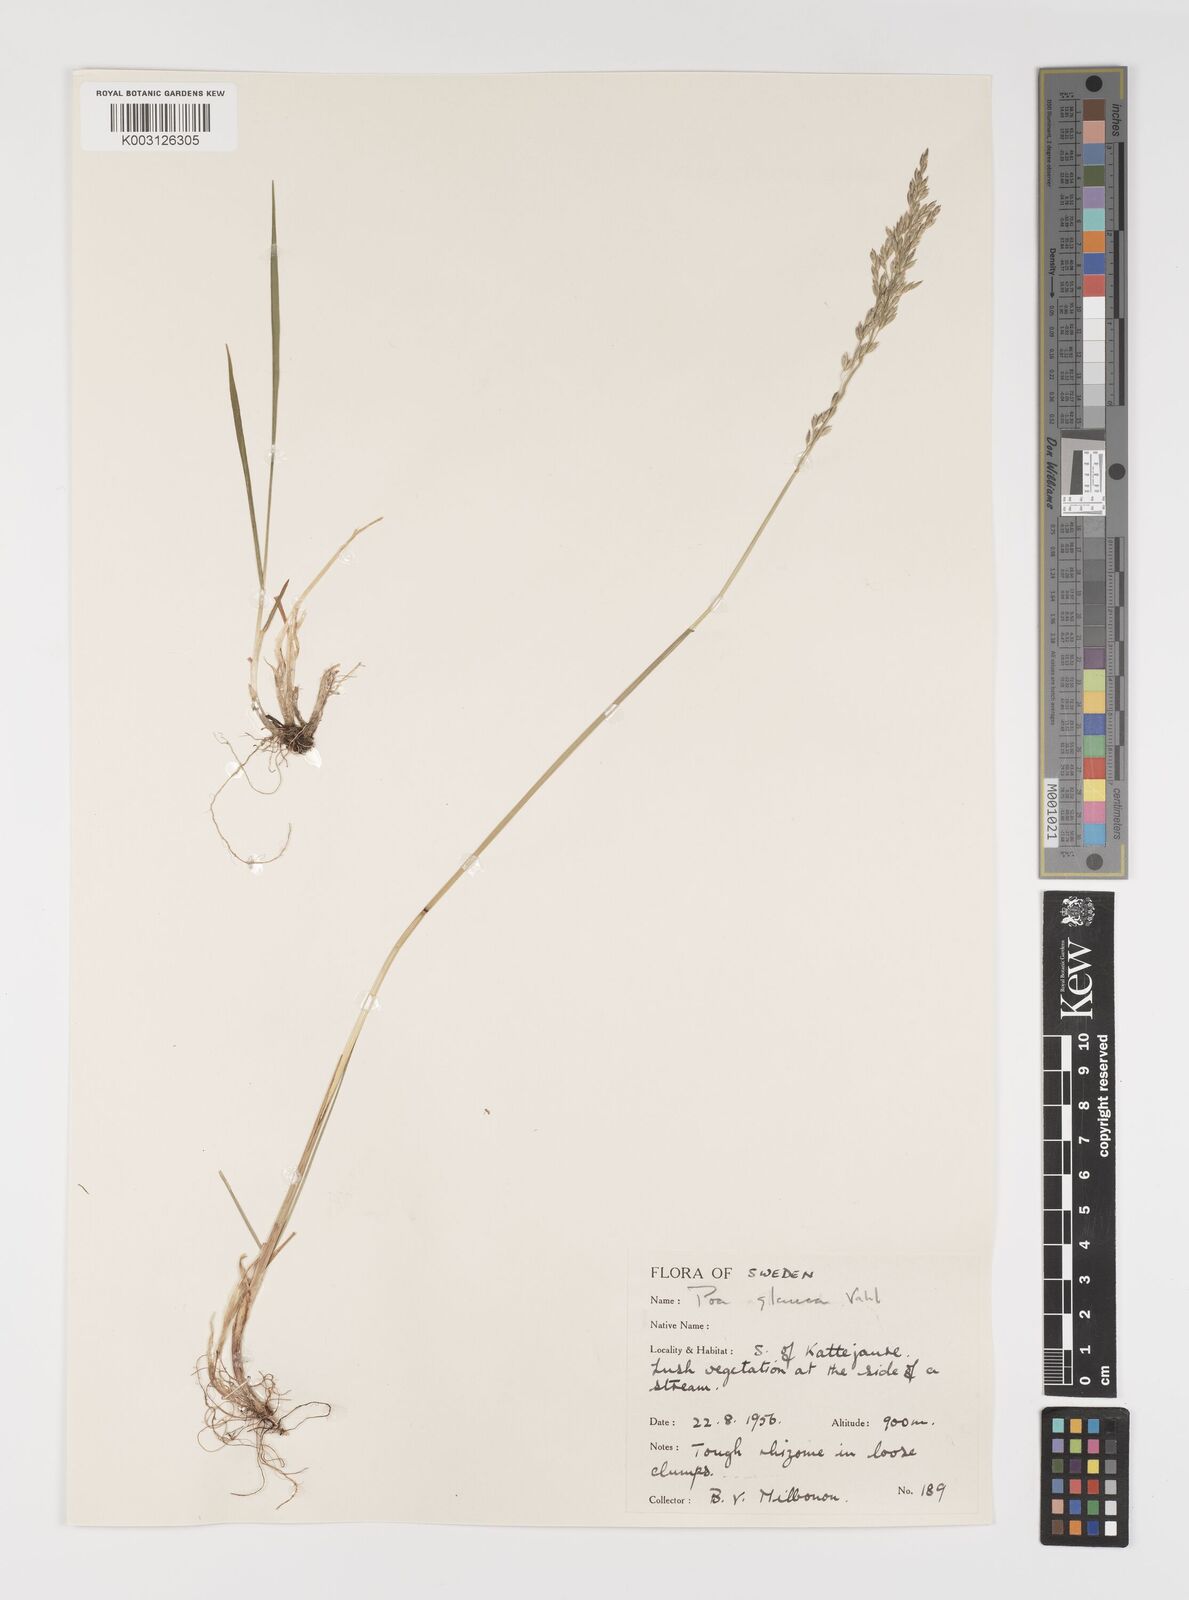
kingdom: Plantae
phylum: Tracheophyta
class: Liliopsida
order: Poales
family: Poaceae
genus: Poa
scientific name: Poa glauca
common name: Glaucous bluegrass
